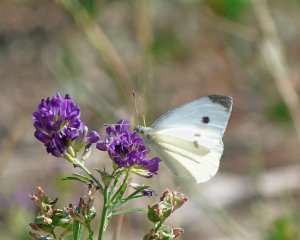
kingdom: Animalia
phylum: Arthropoda
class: Insecta
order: Lepidoptera
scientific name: Lepidoptera
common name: Butterflies
